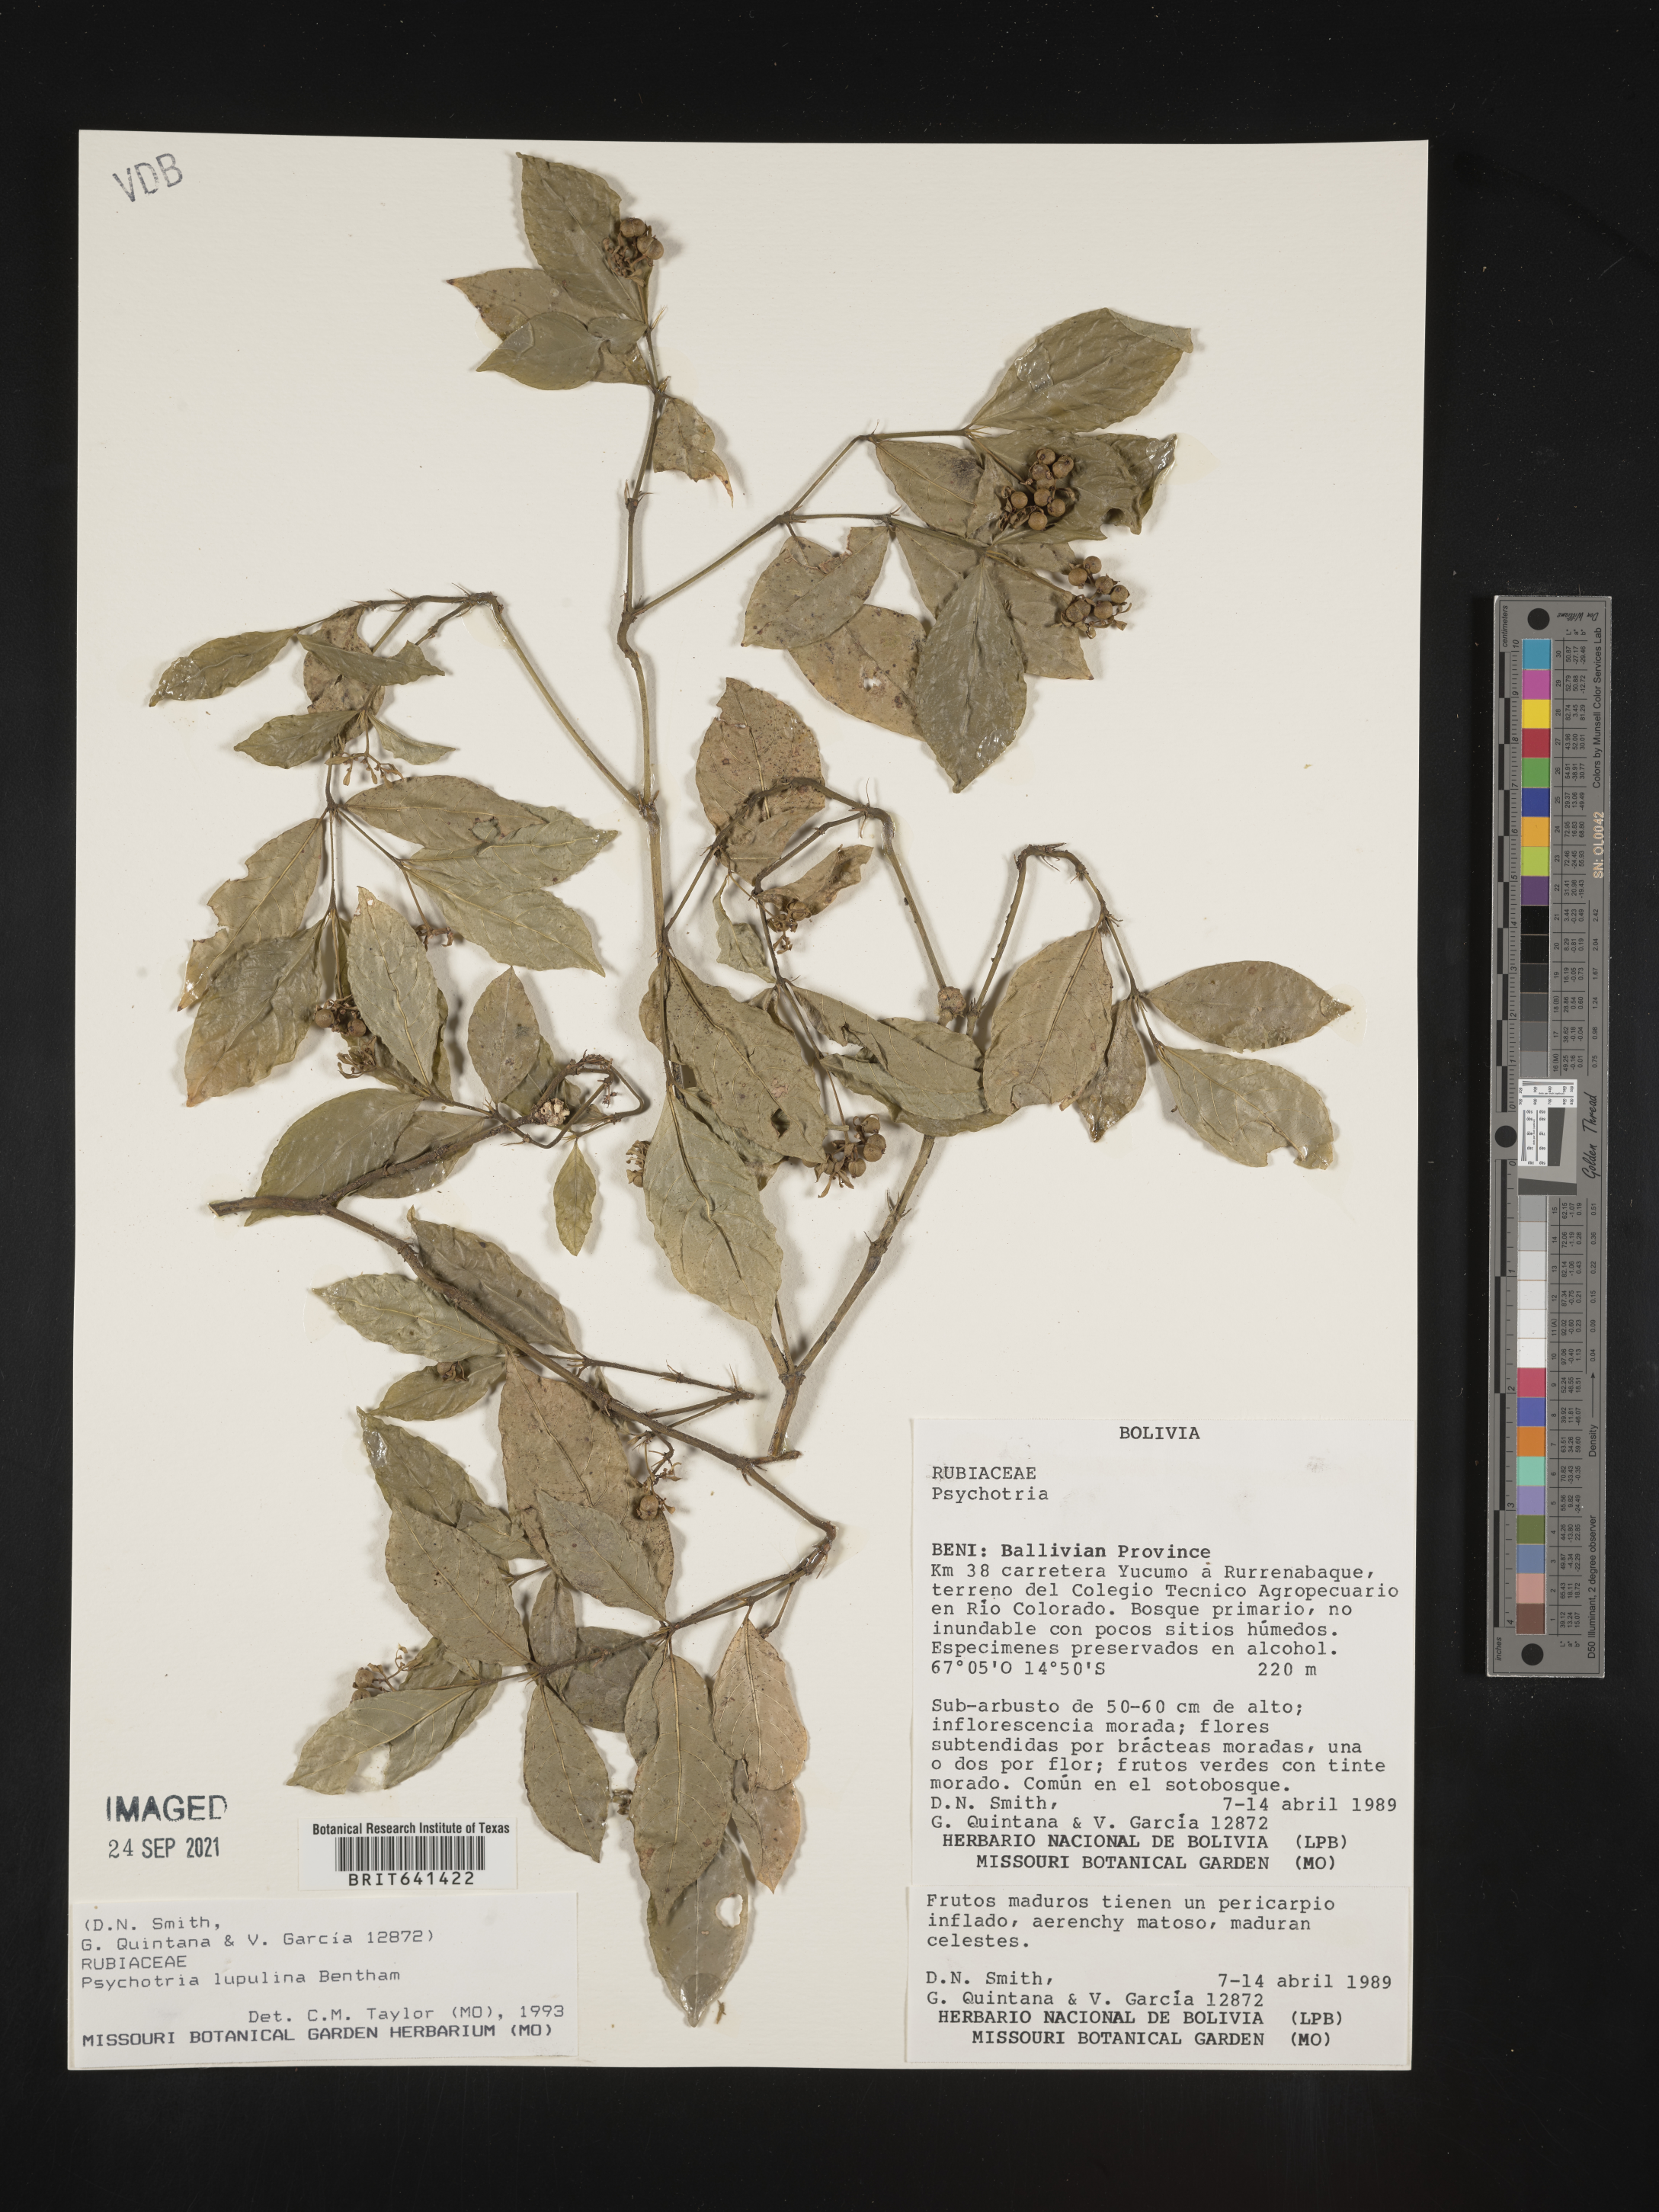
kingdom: Plantae
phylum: Tracheophyta
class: Magnoliopsida
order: Gentianales
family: Rubiaceae
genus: Psychotria
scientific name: Psychotria
